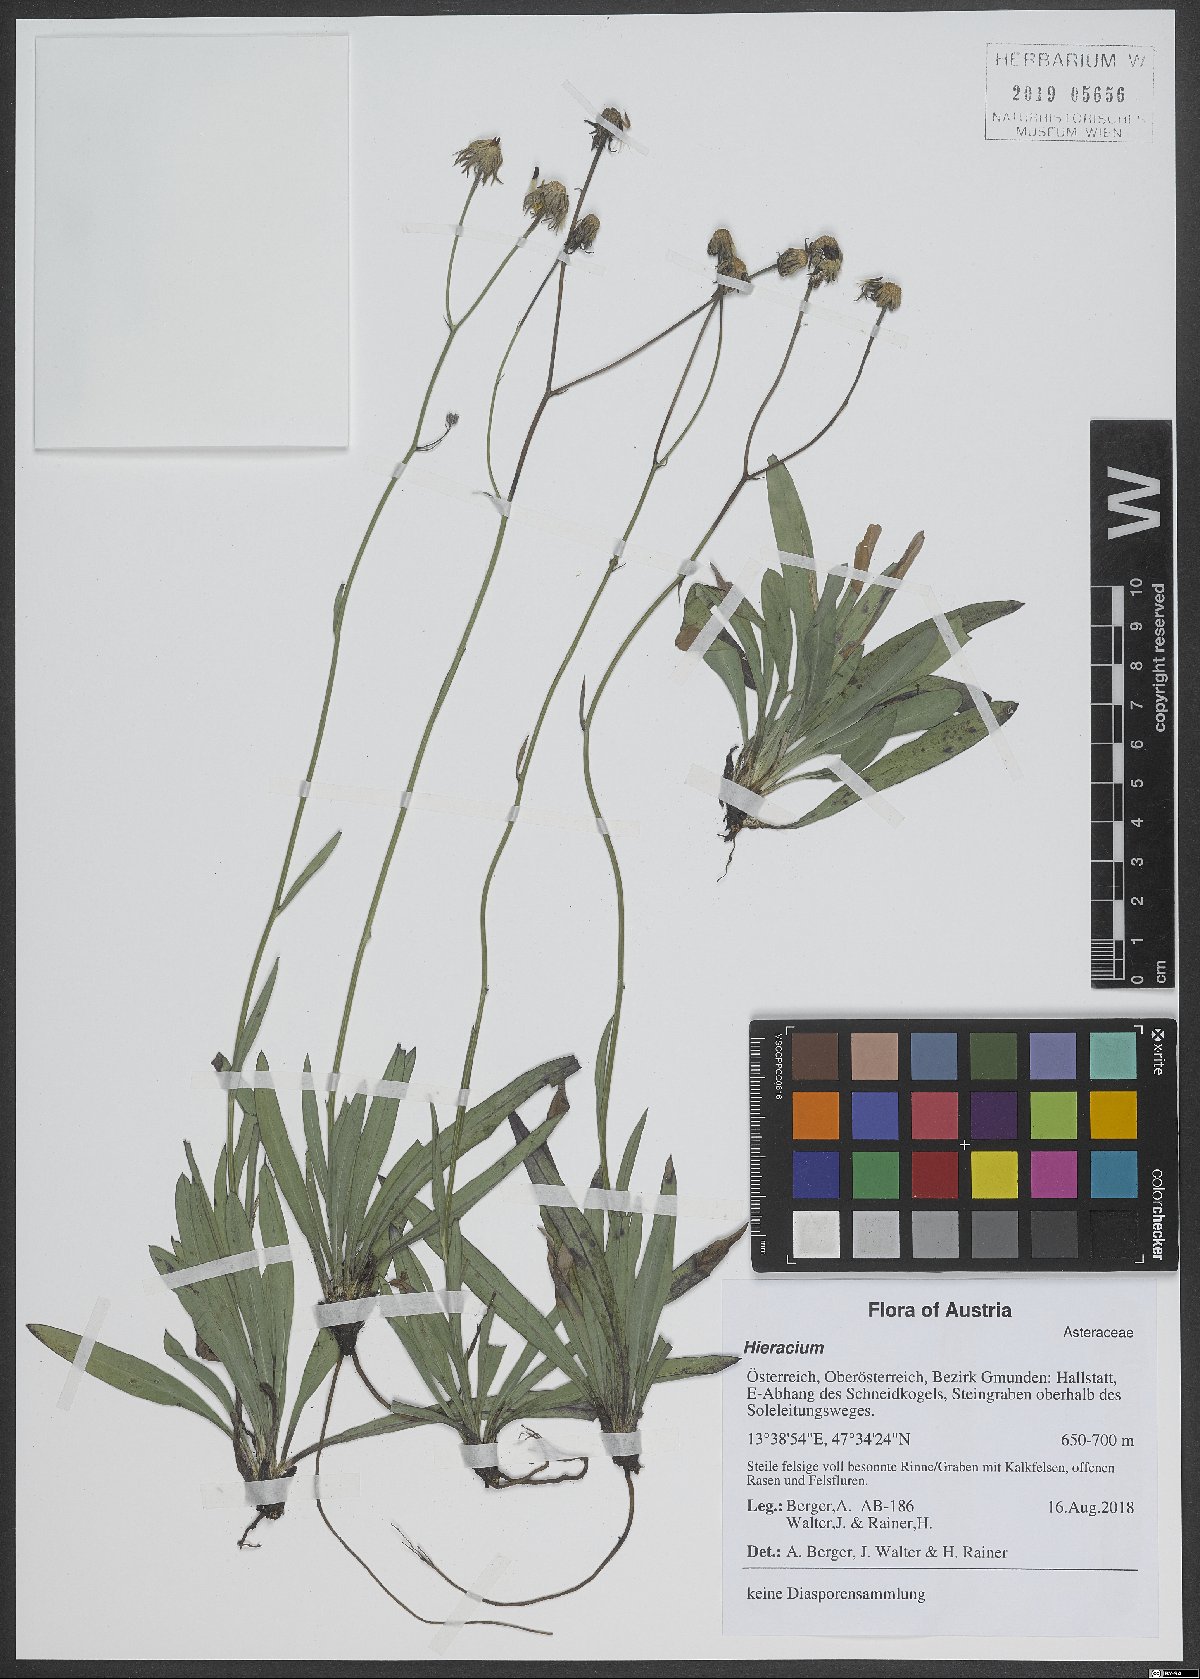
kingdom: Plantae
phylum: Tracheophyta
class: Magnoliopsida
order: Asterales
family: Asteraceae
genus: Hieracium
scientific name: Hieracium
